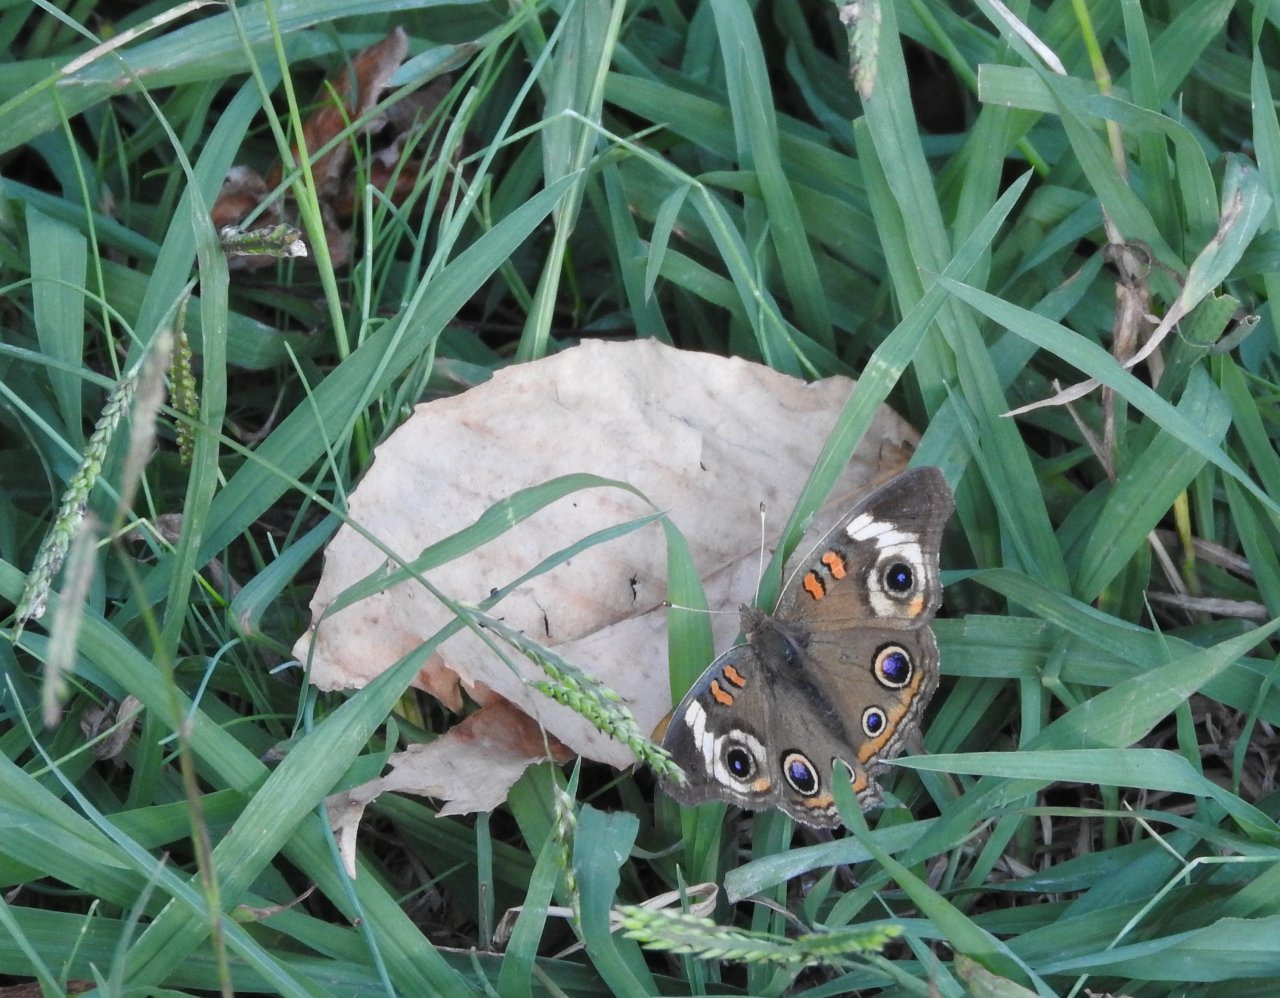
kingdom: Animalia
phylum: Arthropoda
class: Insecta
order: Lepidoptera
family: Nymphalidae
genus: Junonia
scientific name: Junonia coenia
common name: Common Buckeye
